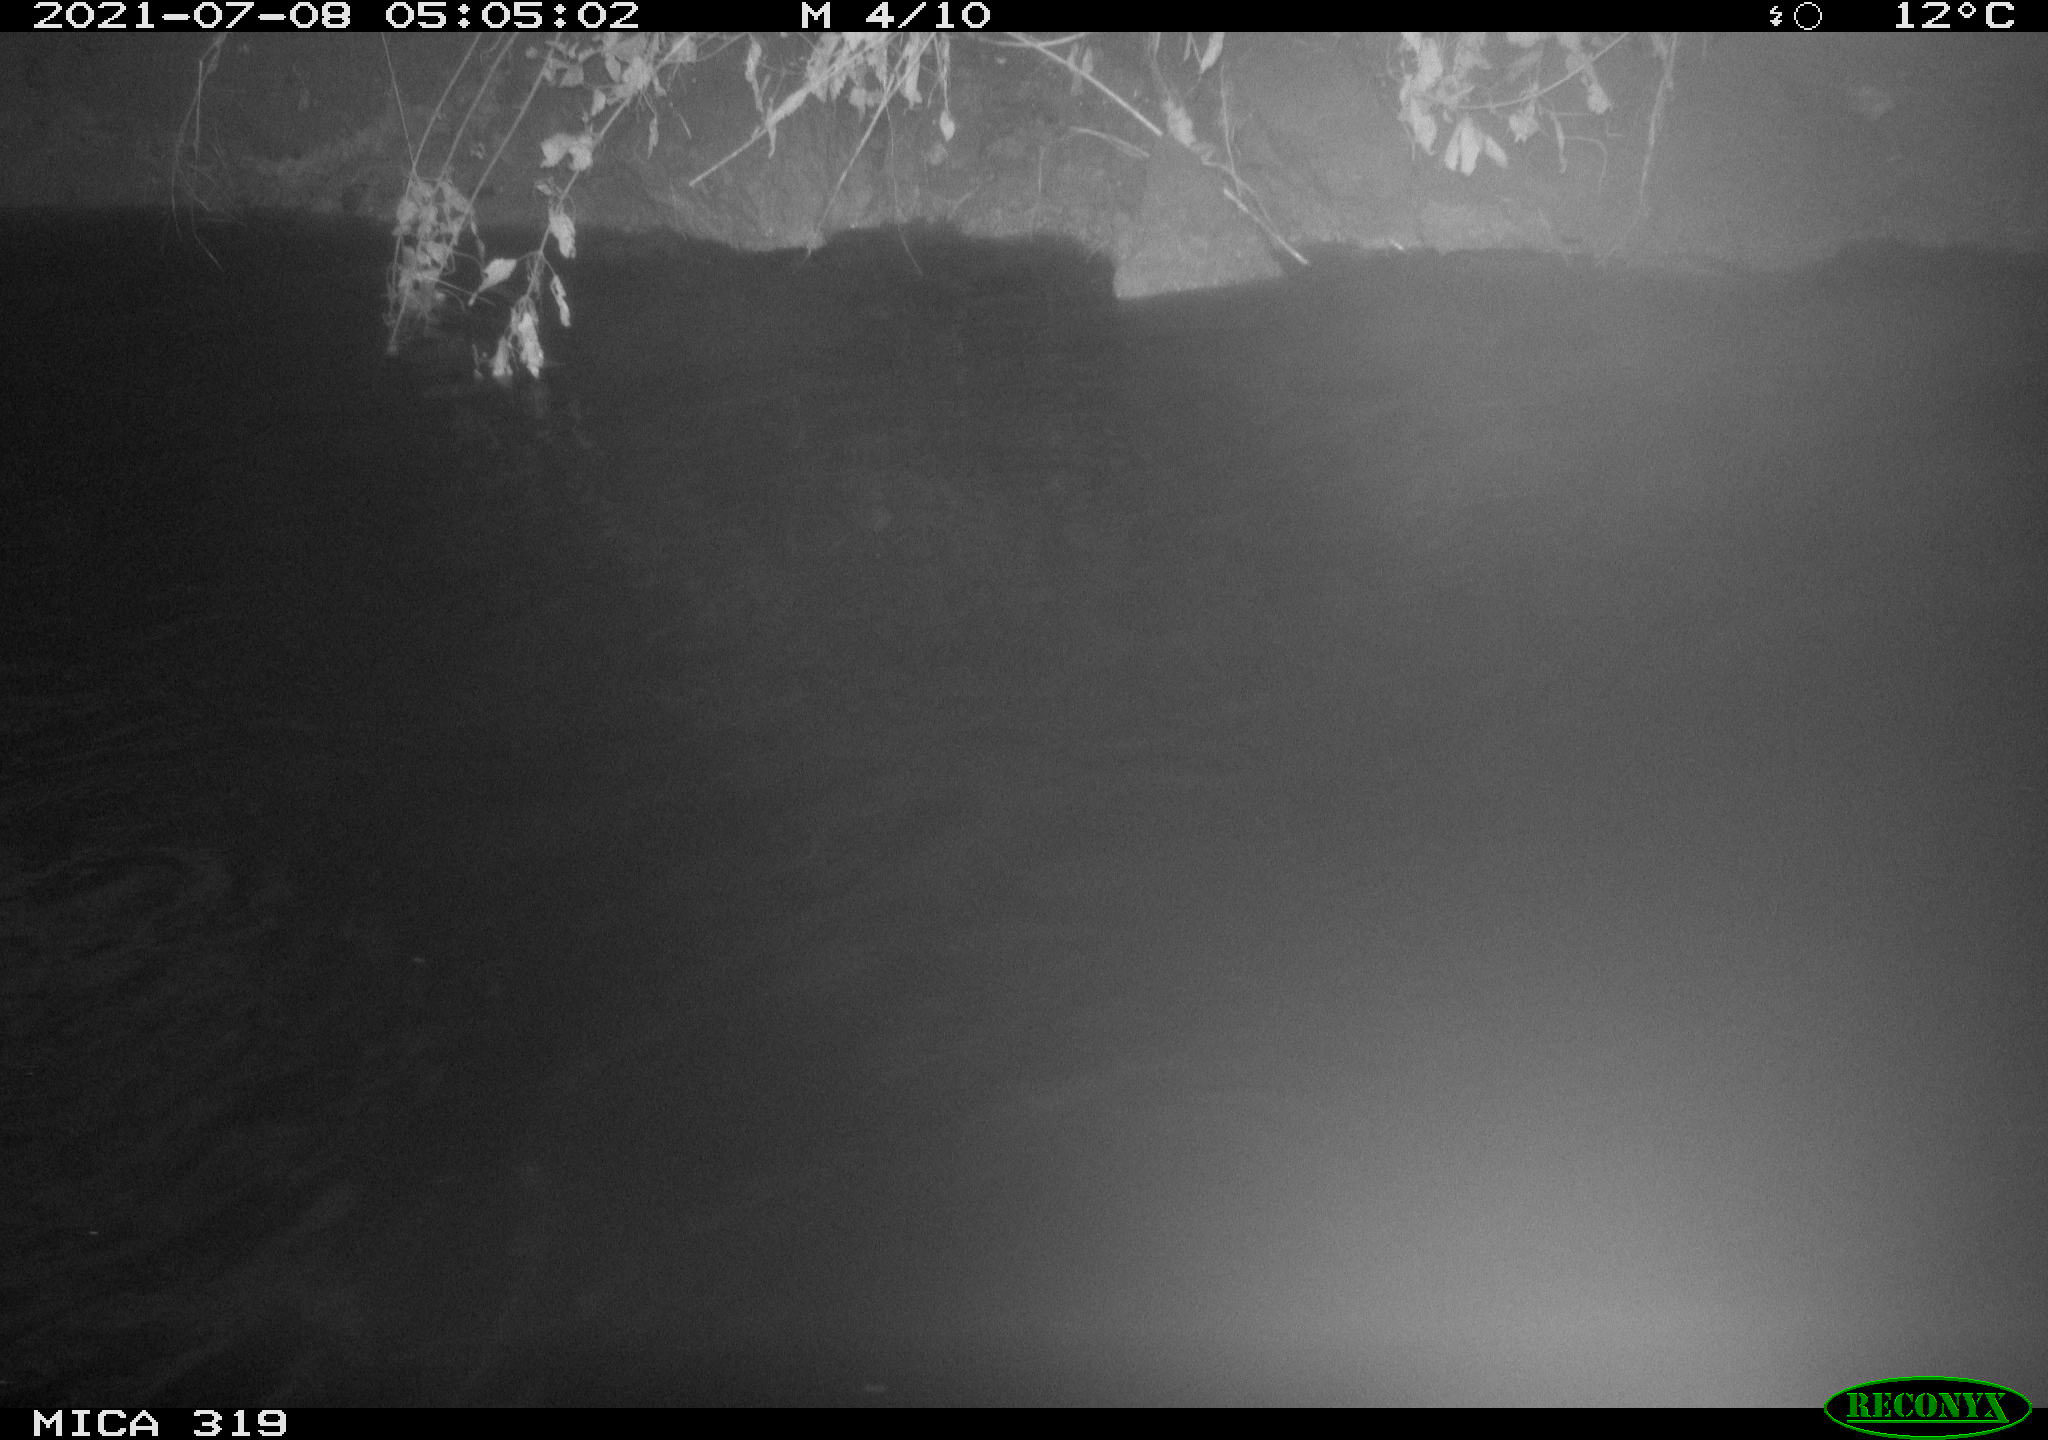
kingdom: Animalia
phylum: Chordata
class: Aves
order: Anseriformes
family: Anatidae
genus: Anas
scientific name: Anas platyrhynchos
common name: Mallard
